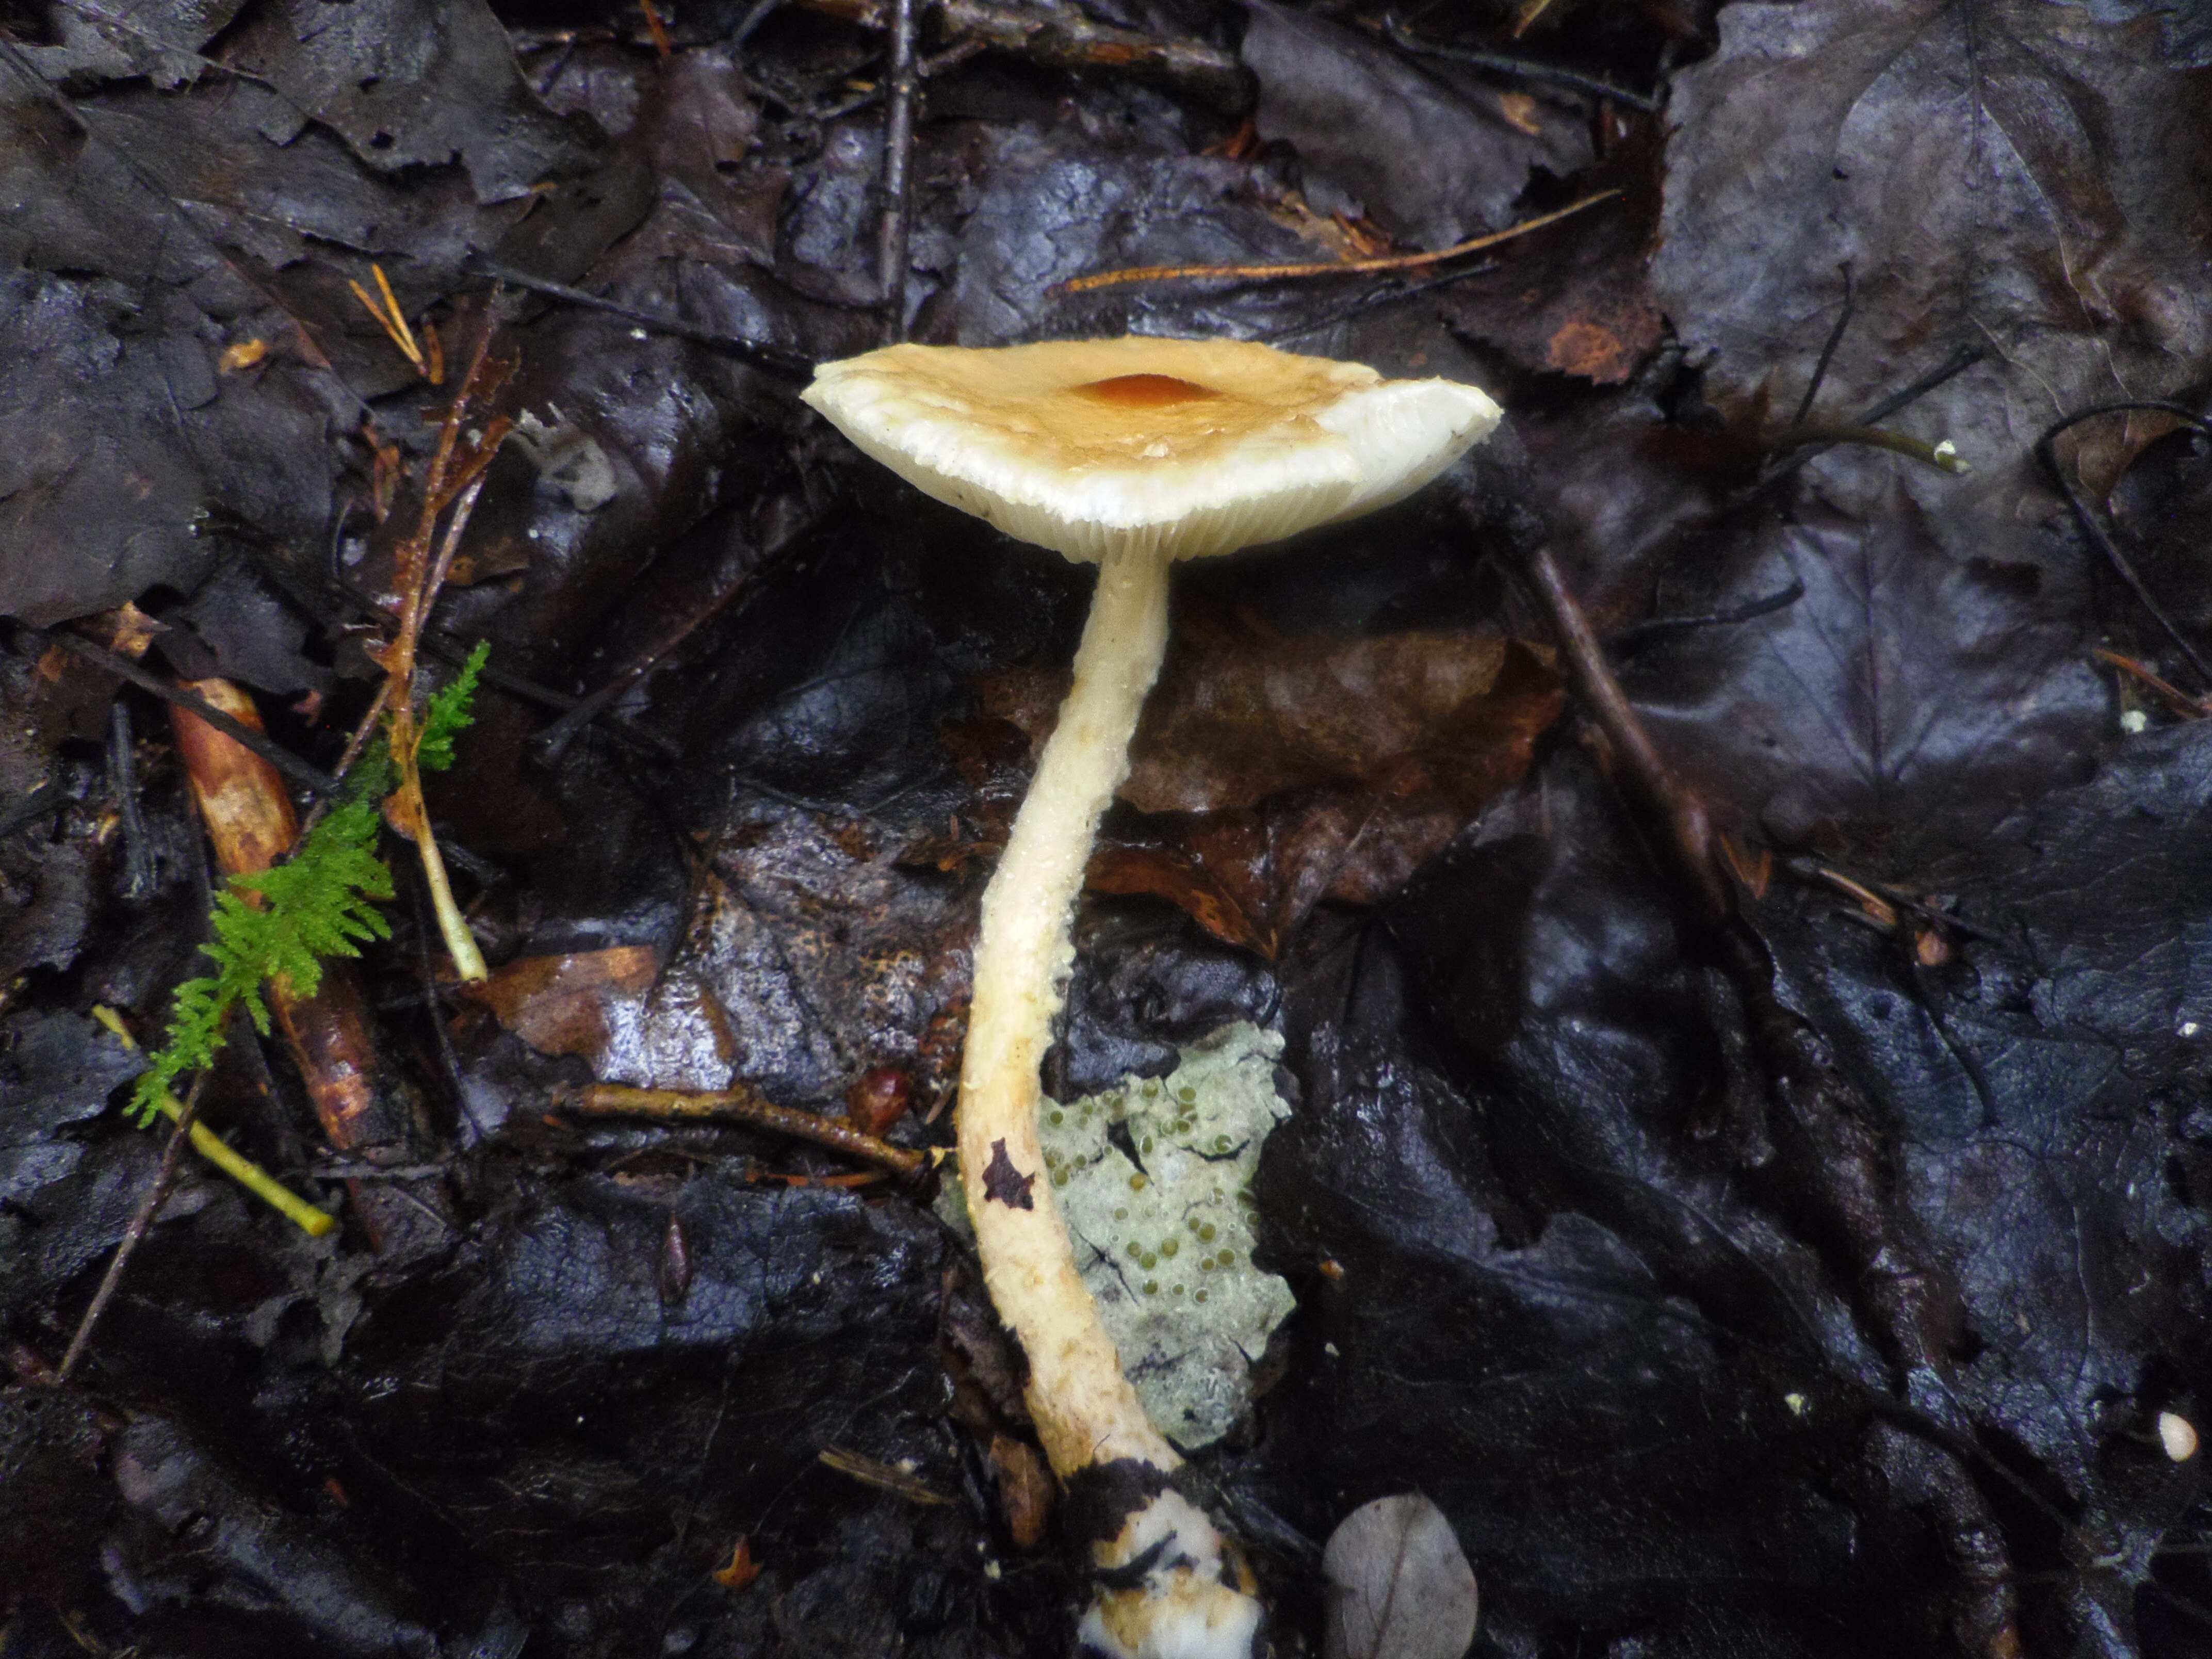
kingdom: Fungi
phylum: Basidiomycota
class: Agaricomycetes
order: Agaricales
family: Agaricaceae
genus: Lepiota
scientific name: Lepiota magnispora
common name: Yellowfoot dapperling
